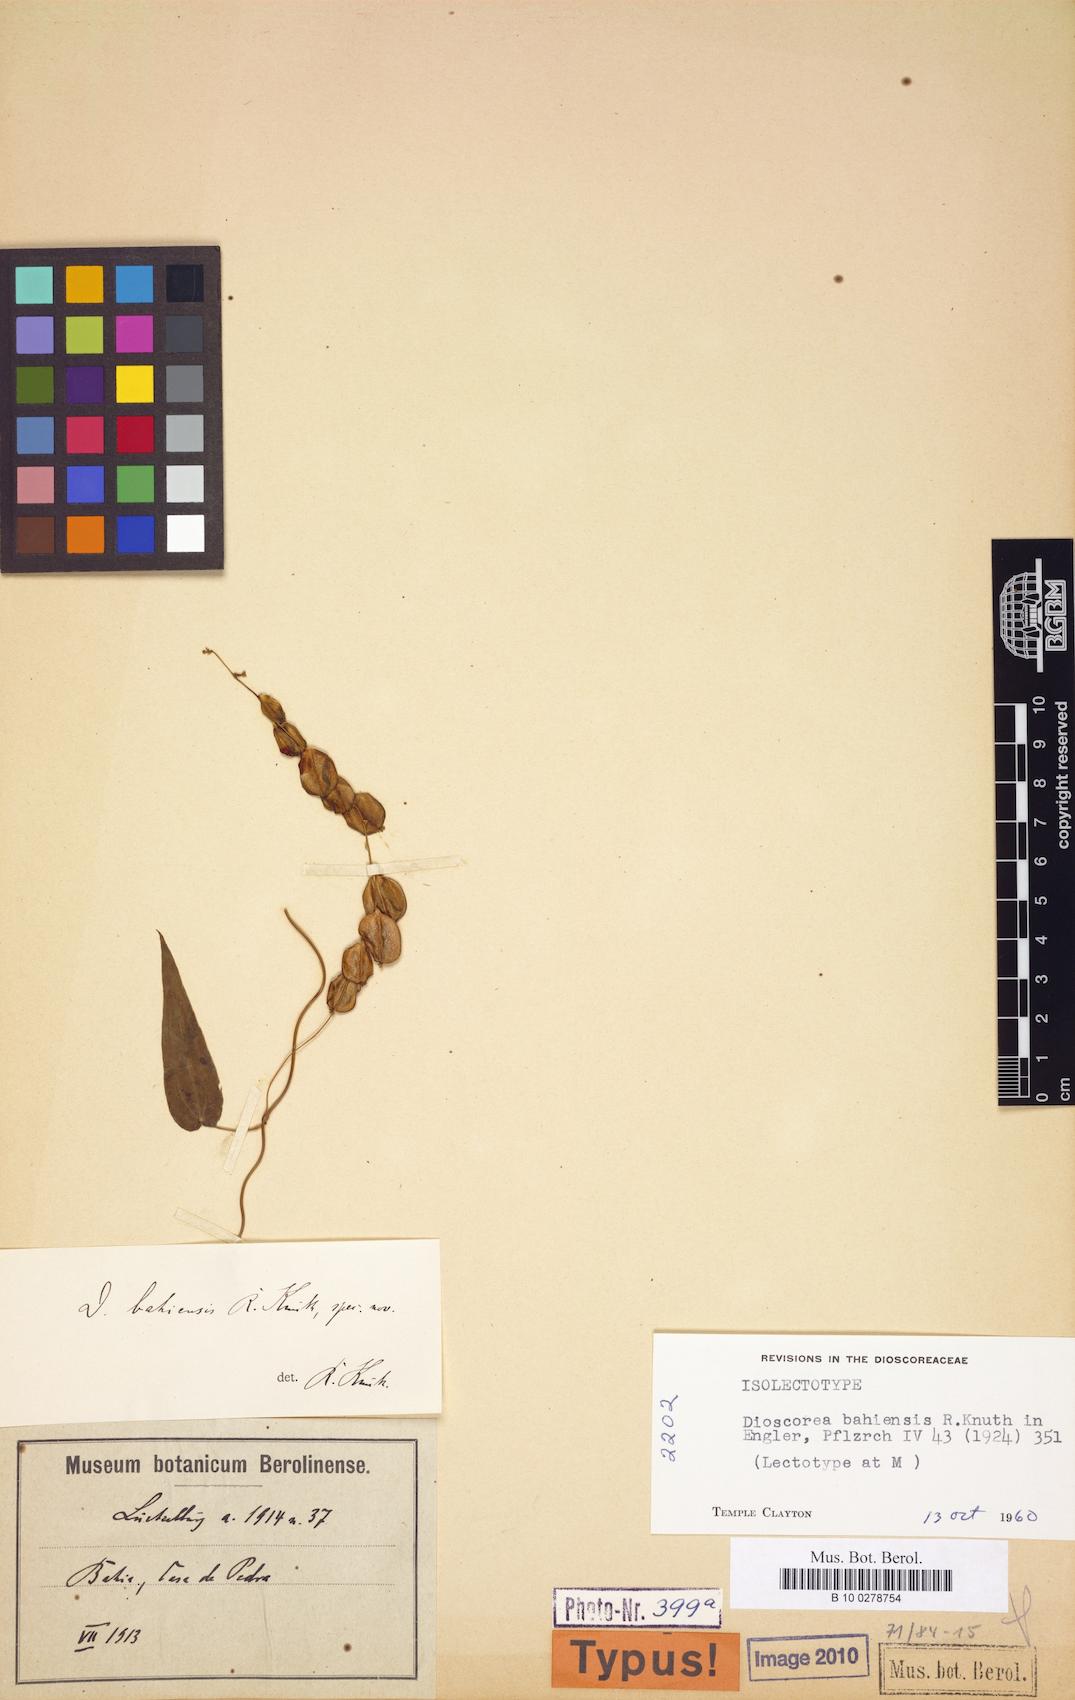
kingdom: Plantae
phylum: Tracheophyta
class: Liliopsida
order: Dioscoreales
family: Dioscoreaceae
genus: Dioscorea
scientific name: Dioscorea bahiensis
